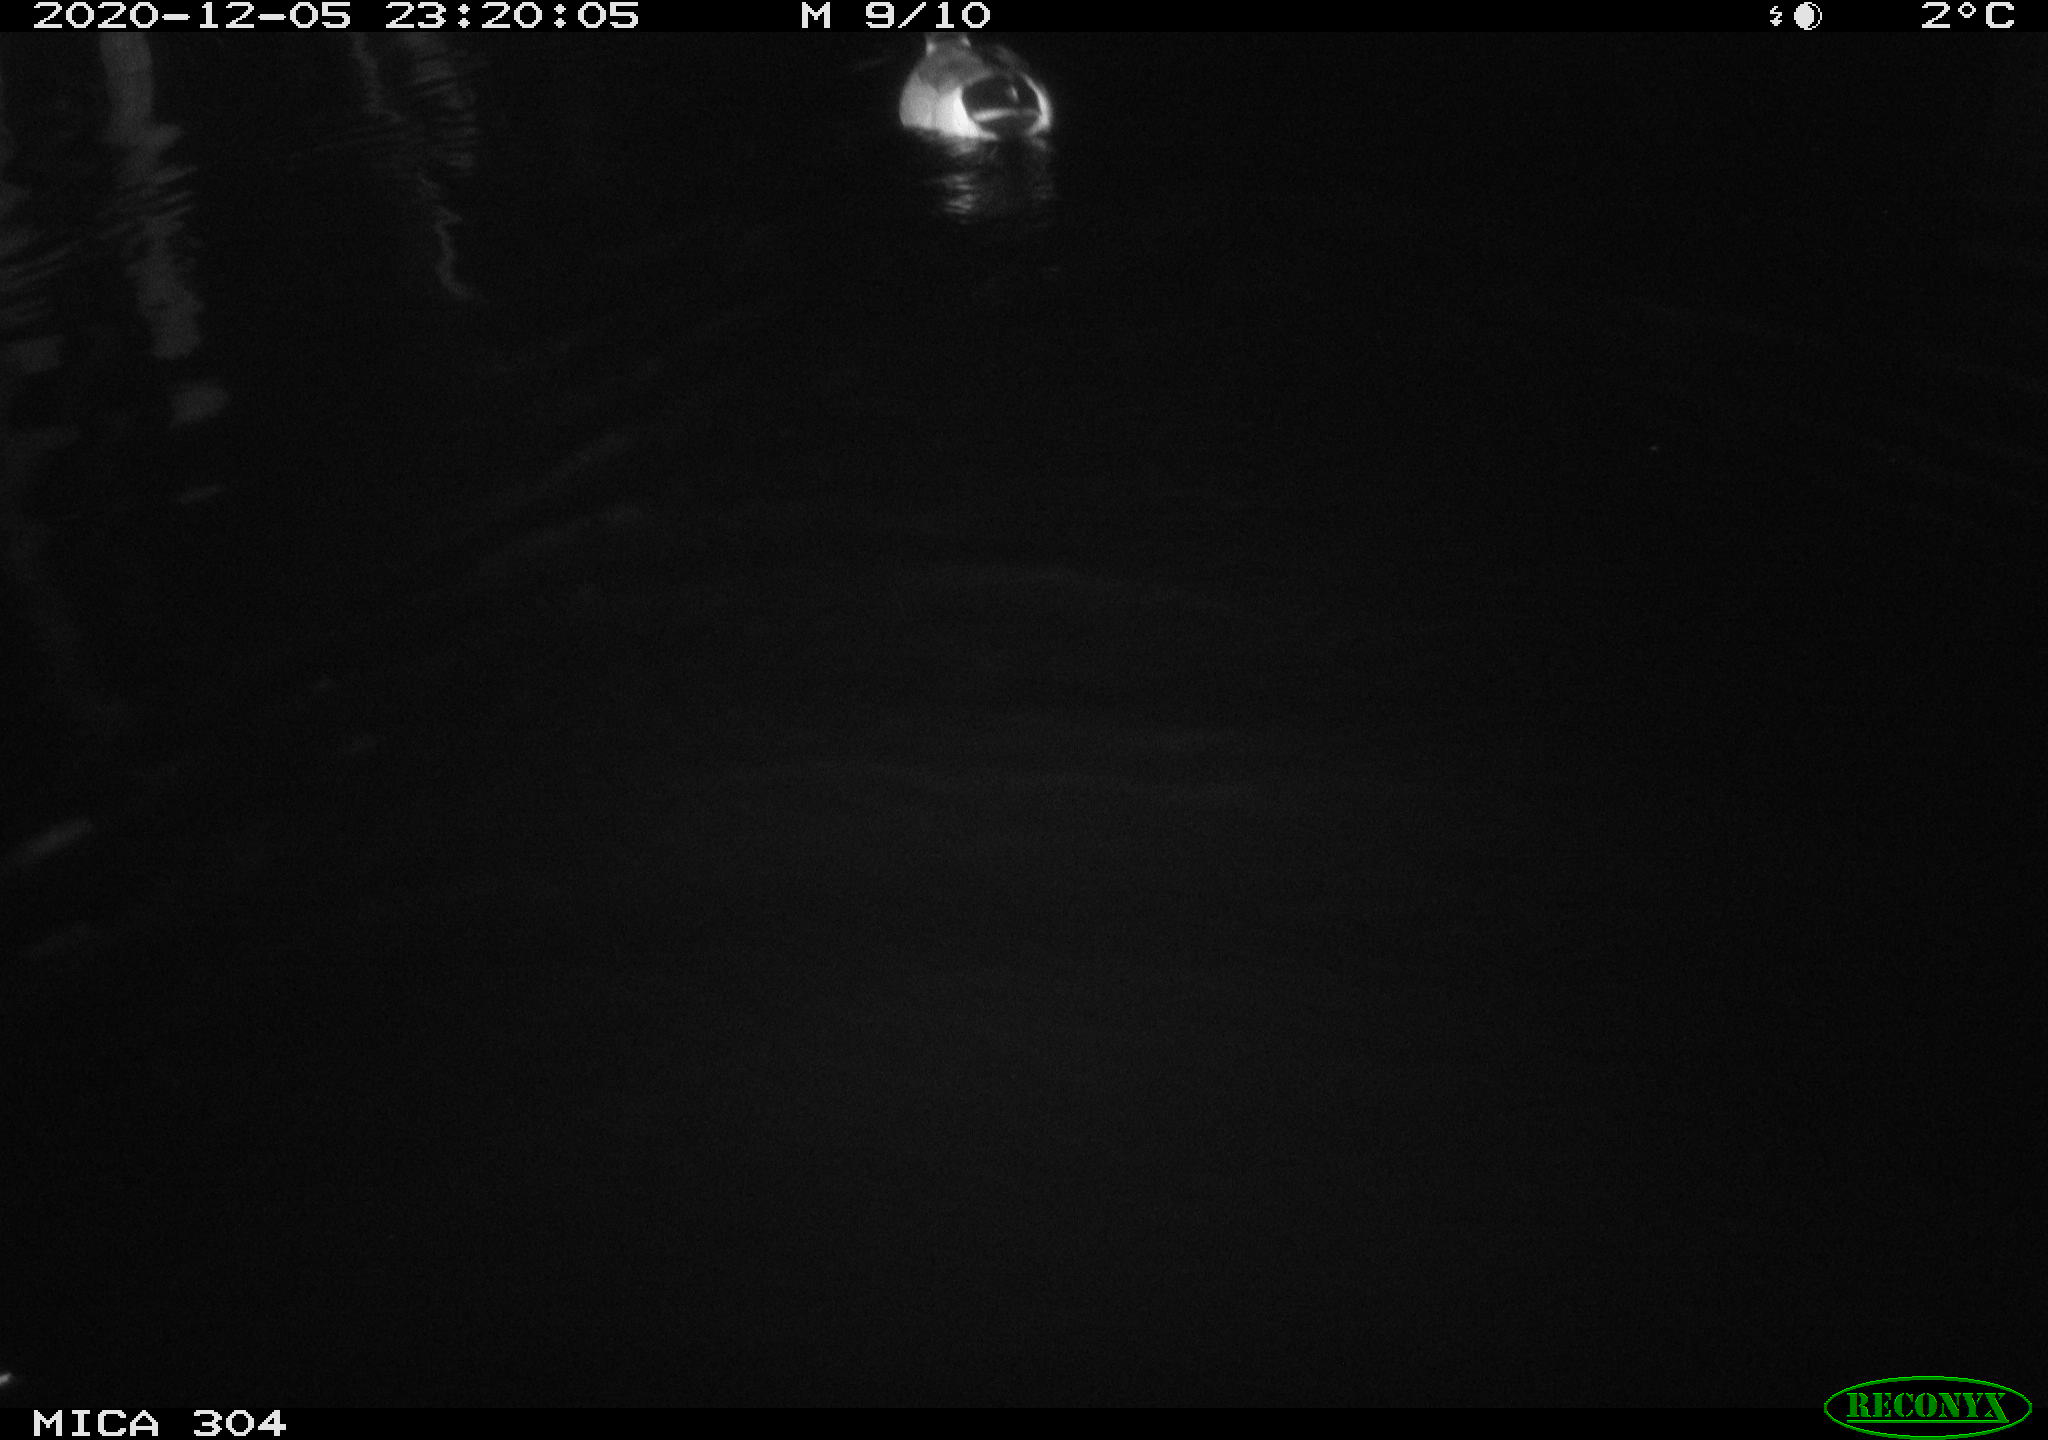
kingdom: Animalia
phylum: Chordata
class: Aves
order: Anseriformes
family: Anatidae
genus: Anas
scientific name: Anas platyrhynchos
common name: Mallard
